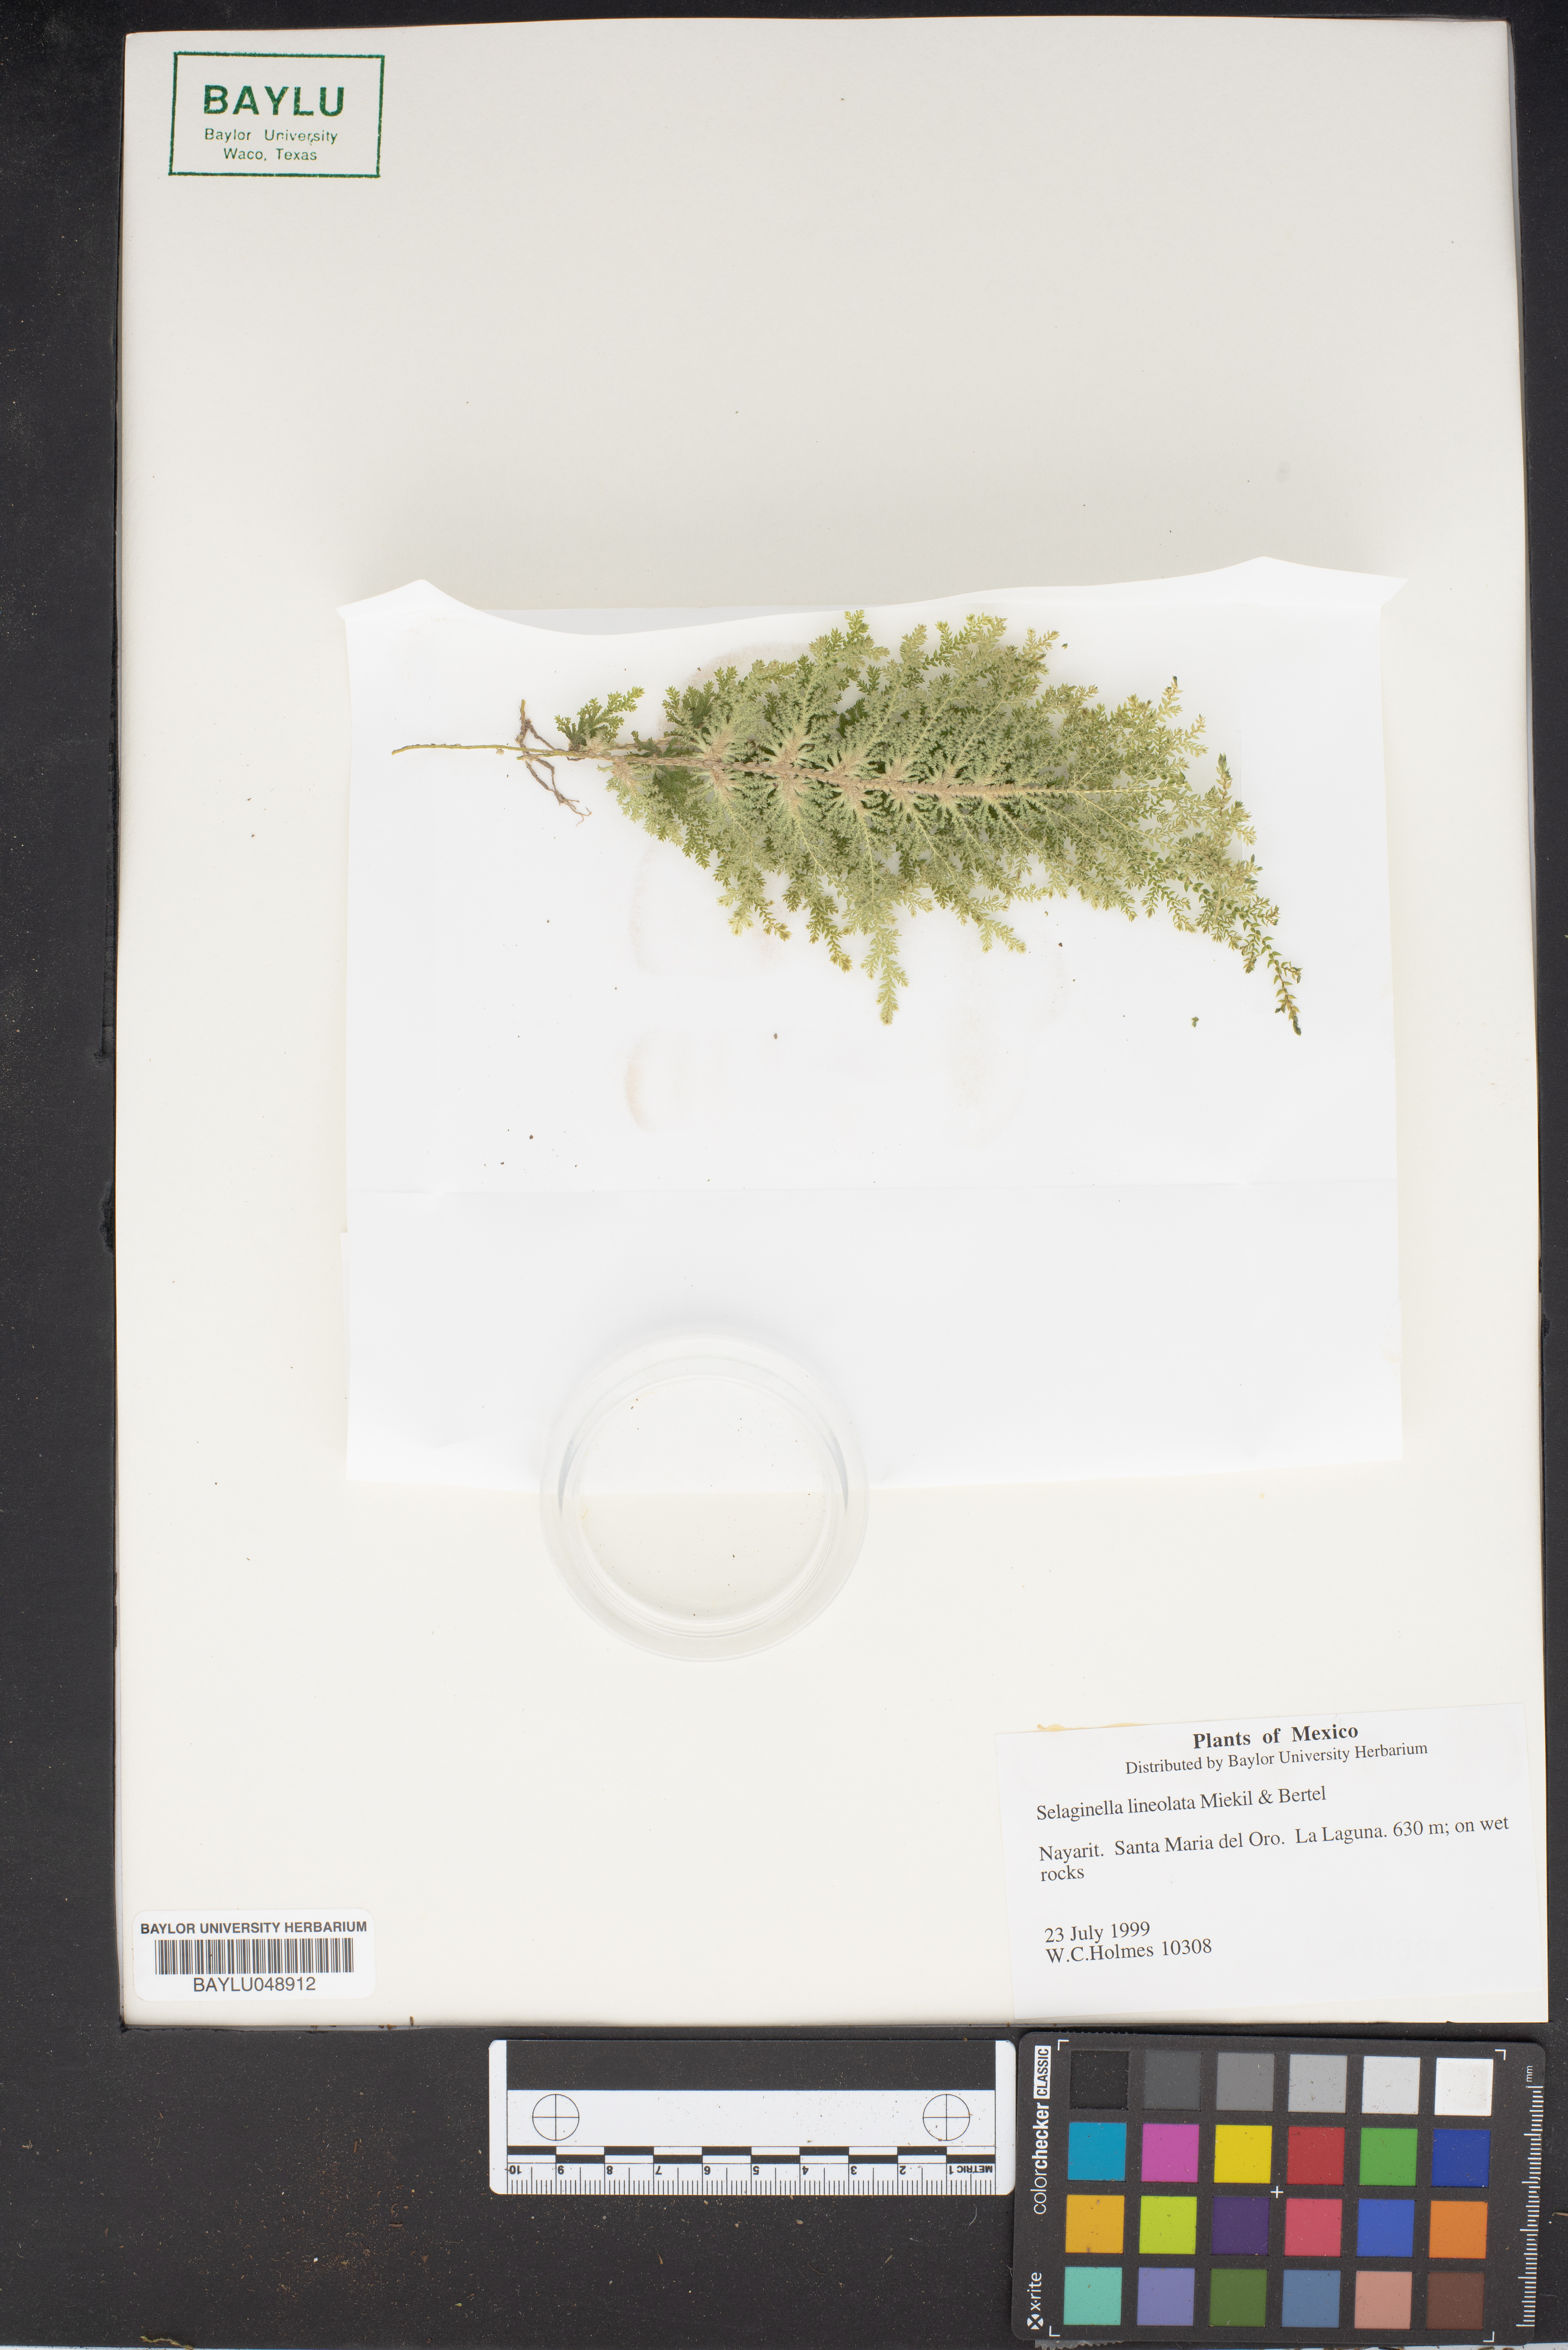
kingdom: Plantae
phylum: Tracheophyta
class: Lycopodiopsida
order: Selaginellales
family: Selaginellaceae
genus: Selaginella
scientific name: Selaginella lineolata
